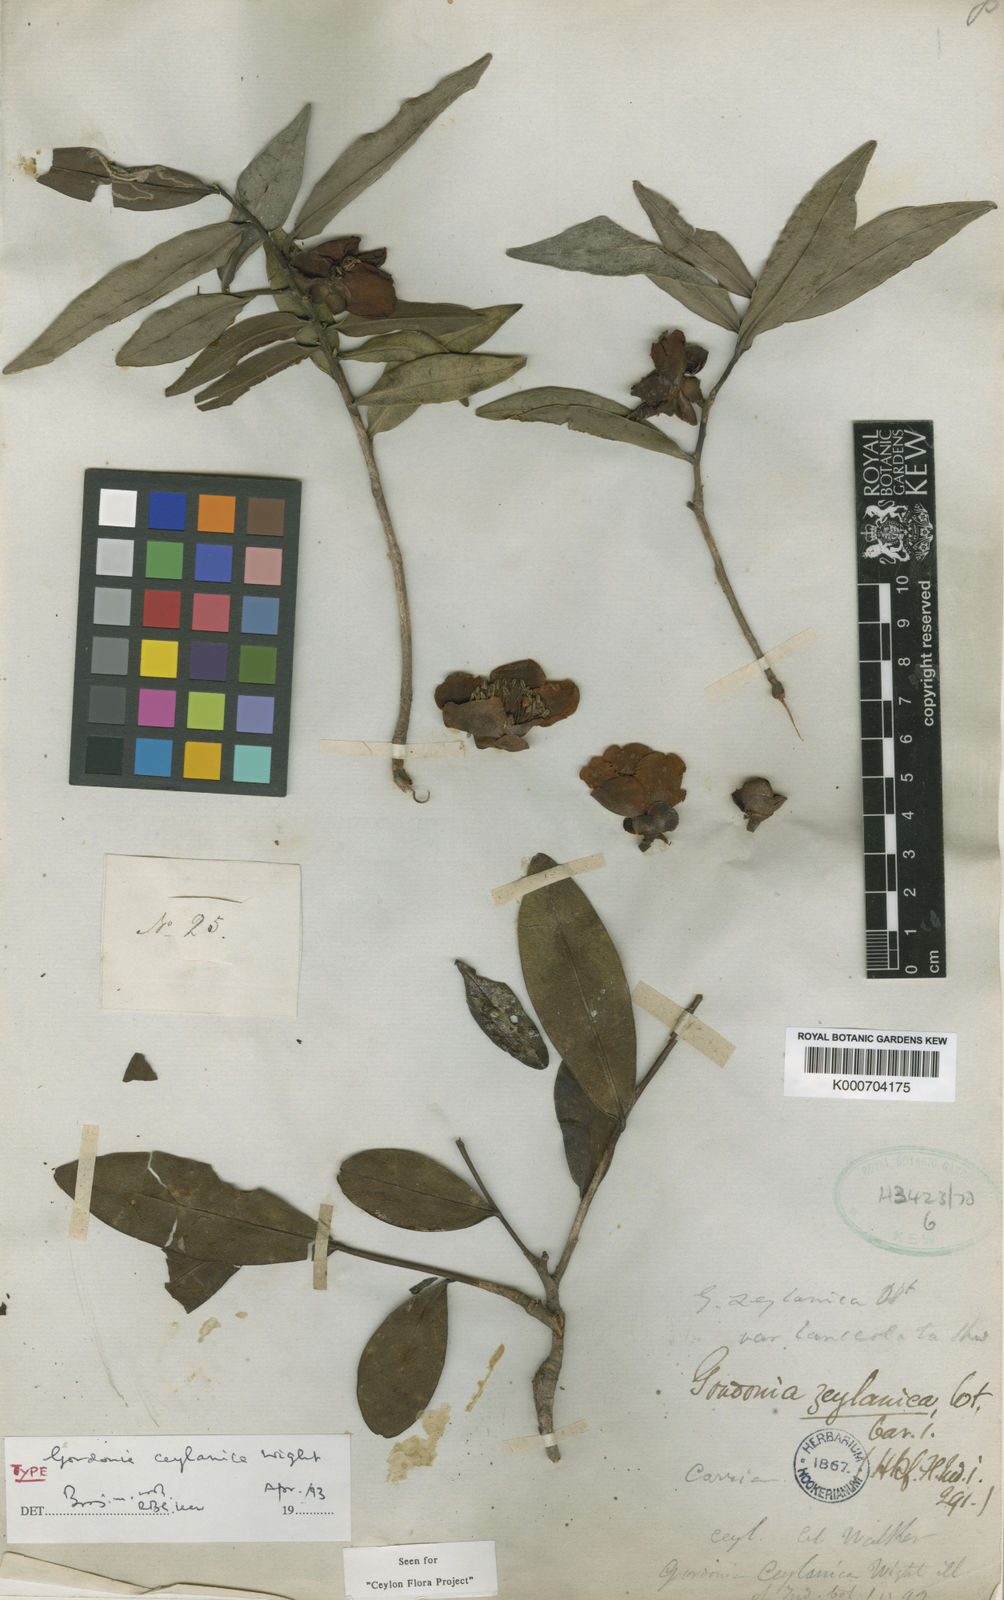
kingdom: Plantae
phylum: Tracheophyta
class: Magnoliopsida
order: Ericales
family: Theaceae
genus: Gordonia
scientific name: Gordonia
